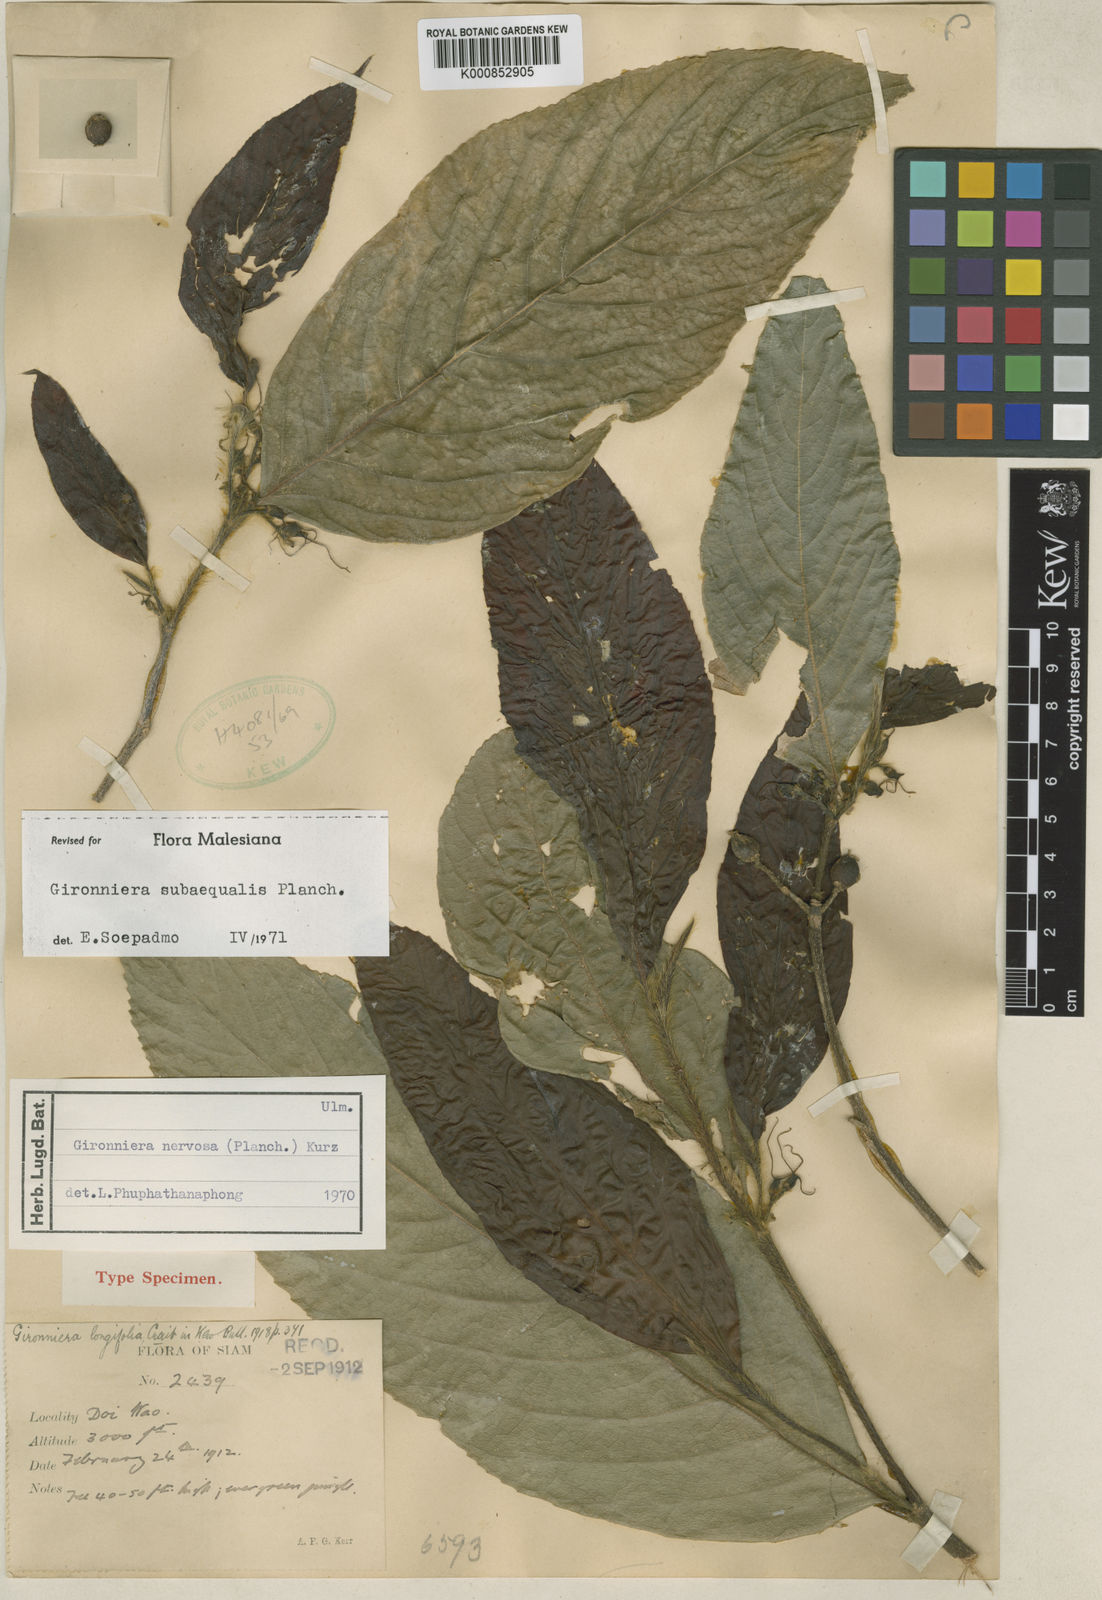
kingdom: Plantae
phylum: Tracheophyta
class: Magnoliopsida
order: Rosales
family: Cannabaceae
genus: Gironniera
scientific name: Gironniera subaequalis
